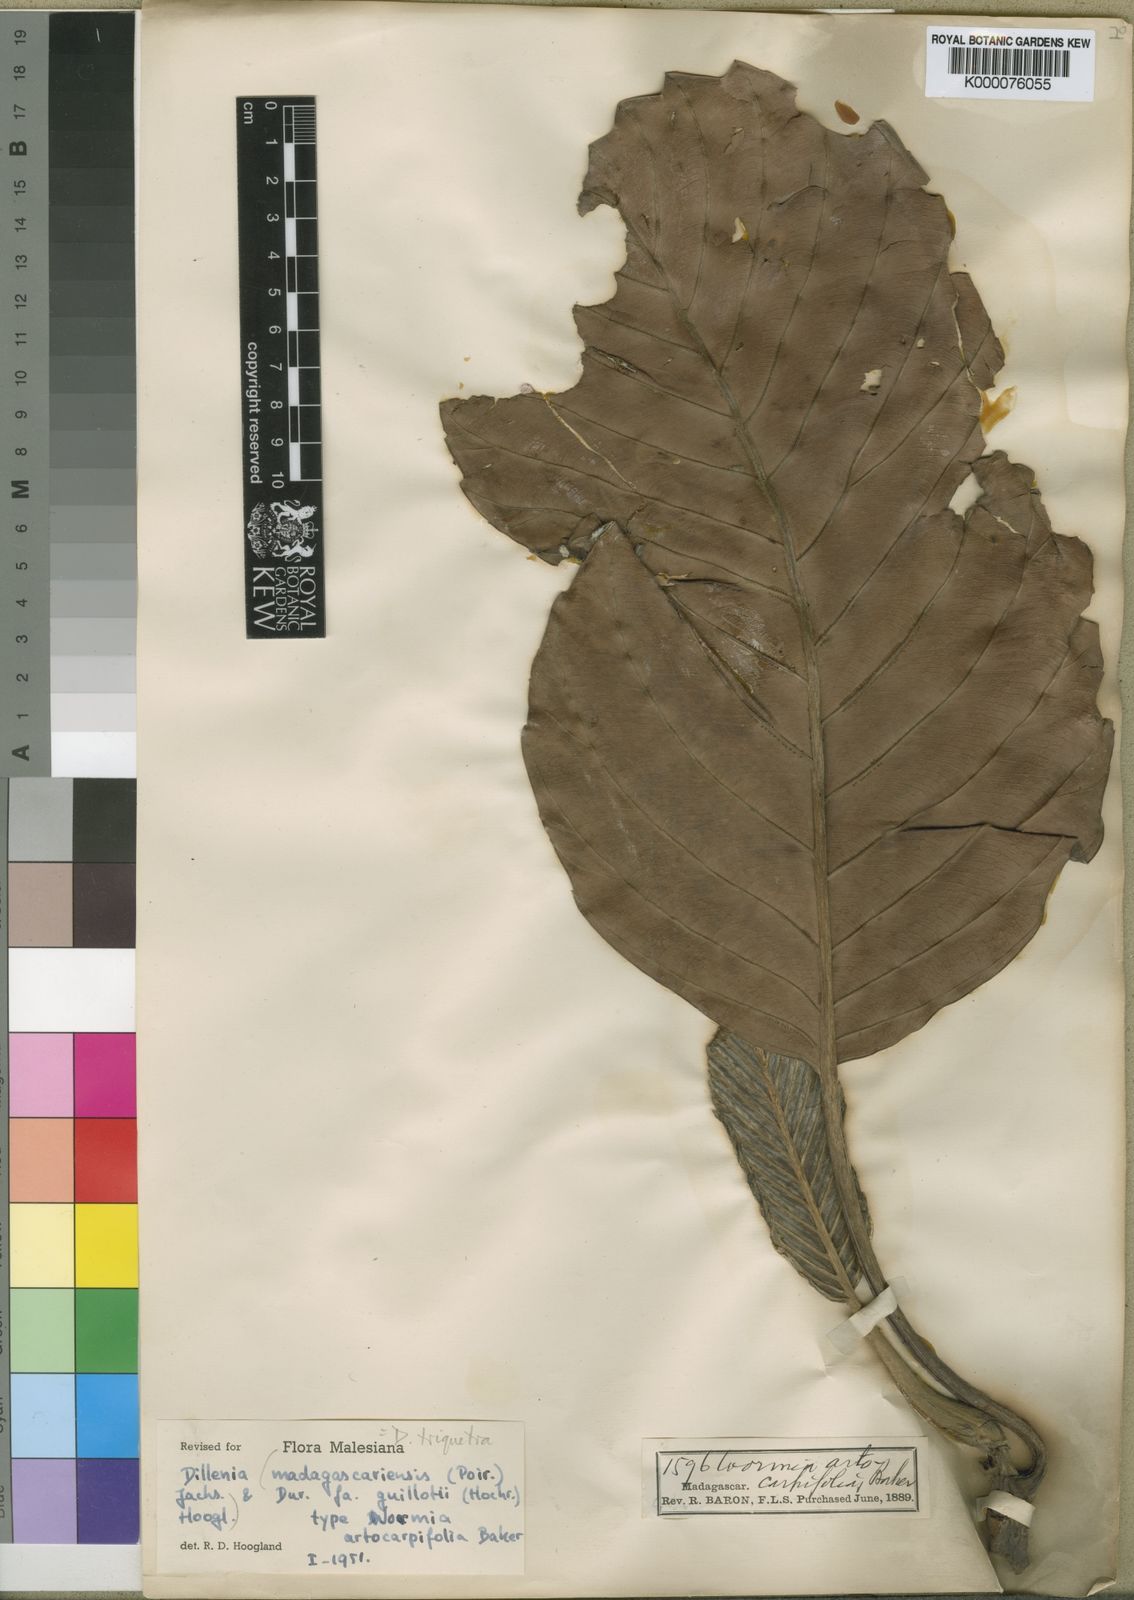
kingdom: Plantae
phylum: Tracheophyta
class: Magnoliopsida
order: Dilleniales
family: Dilleniaceae
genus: Dillenia
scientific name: Dillenia triquetra
